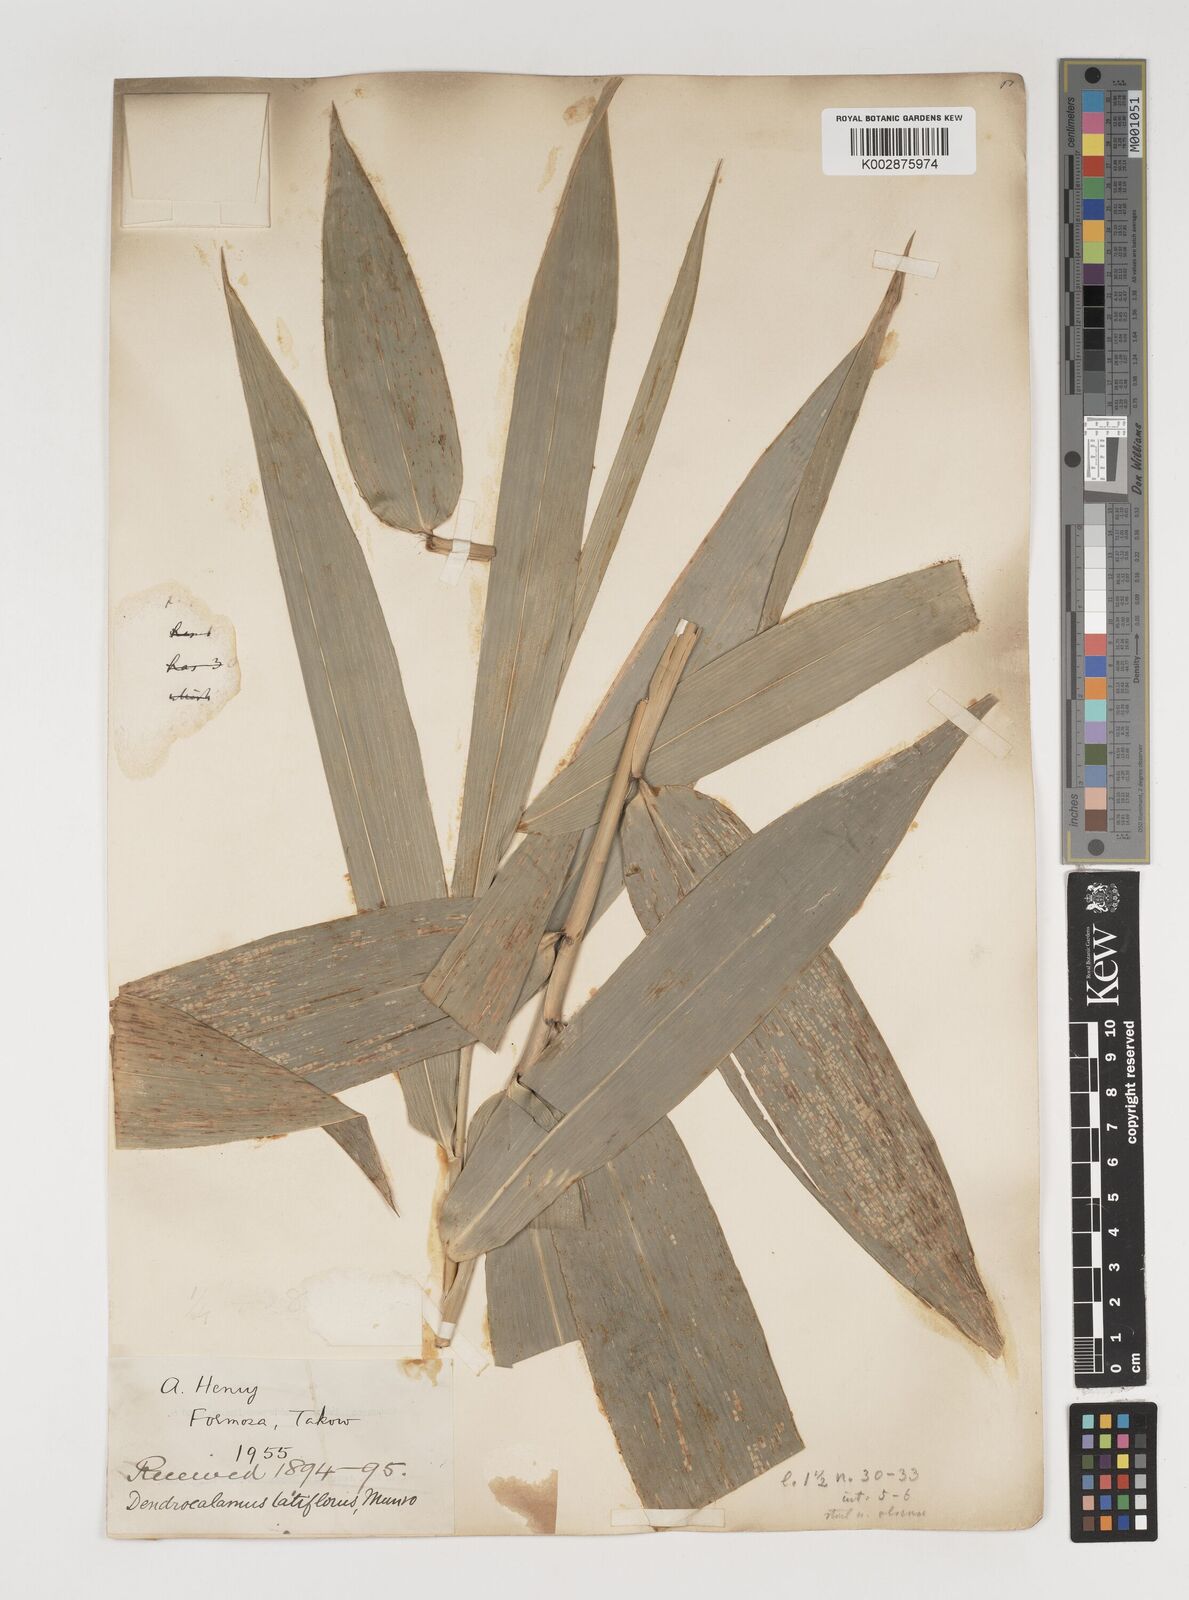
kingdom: Plantae
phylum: Tracheophyta
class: Liliopsida
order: Poales
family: Poaceae
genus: Bambusa
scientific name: Bambusa oldhamii
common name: Giant timber bamboo
